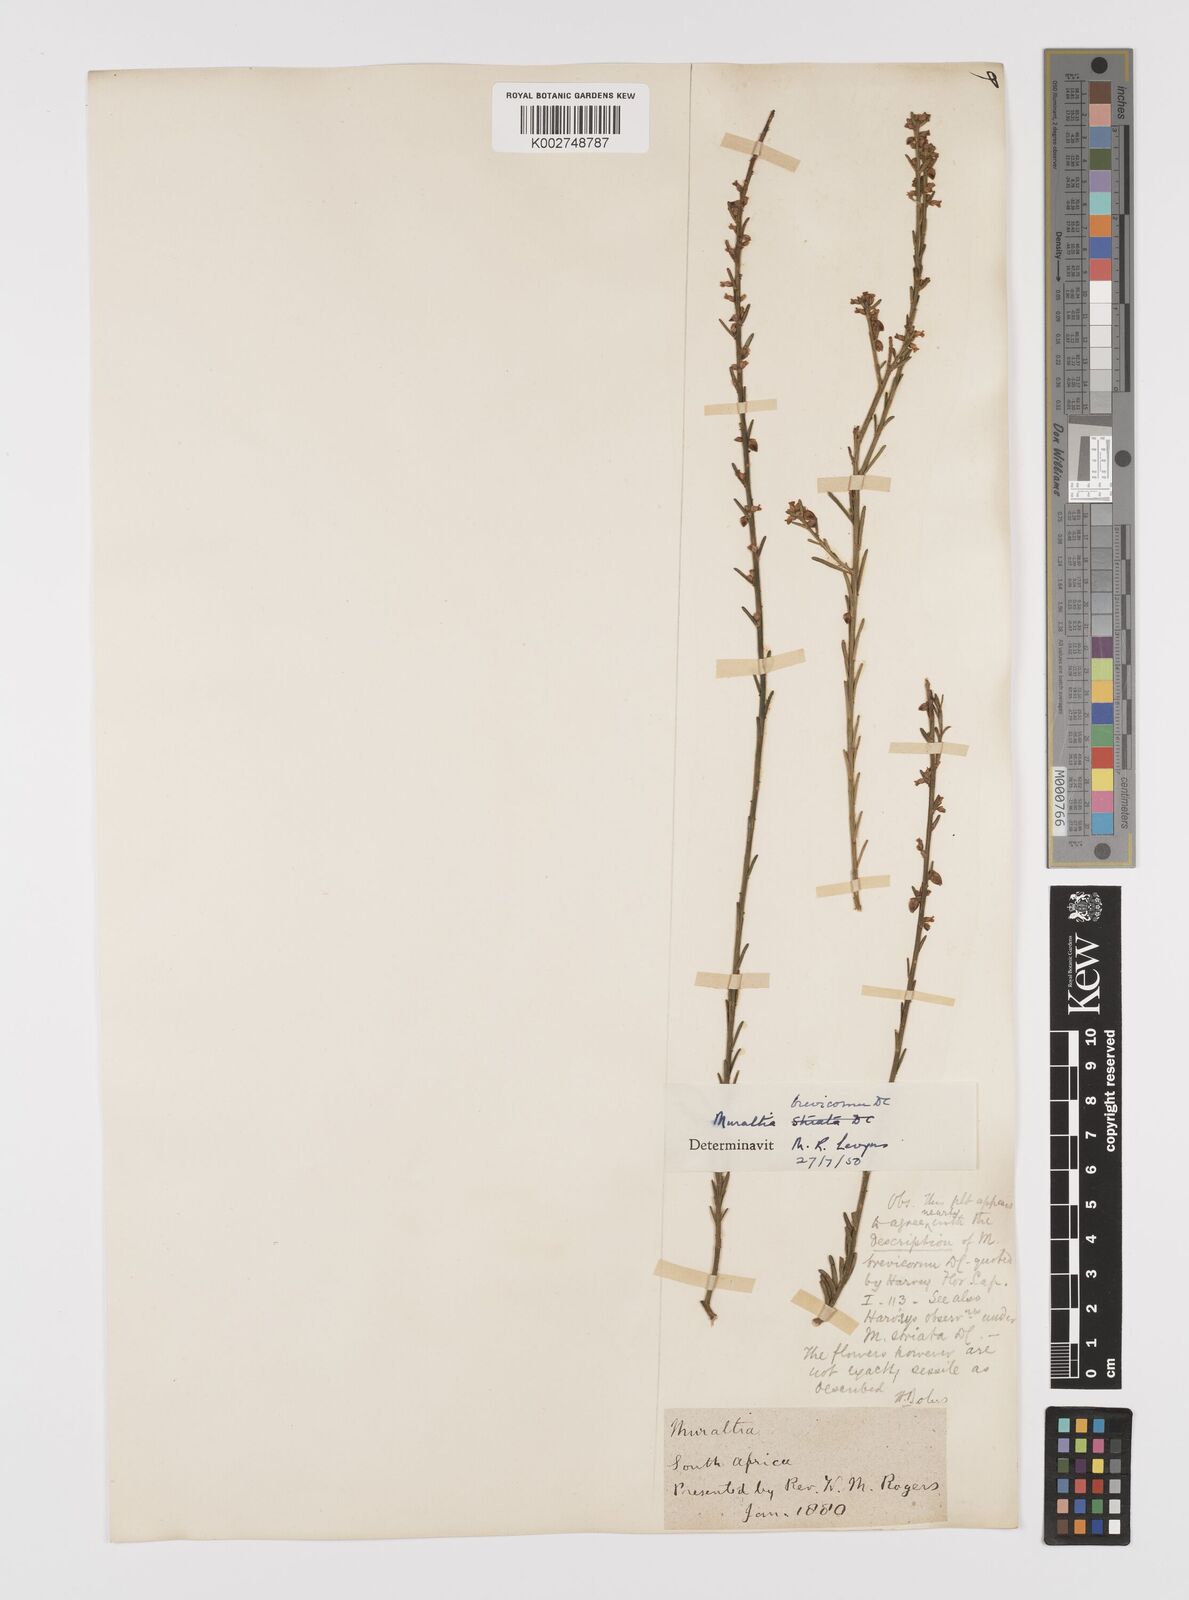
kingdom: Plantae
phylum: Tracheophyta
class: Magnoliopsida
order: Fabales
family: Polygalaceae
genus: Muraltia
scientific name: Muraltia striata
